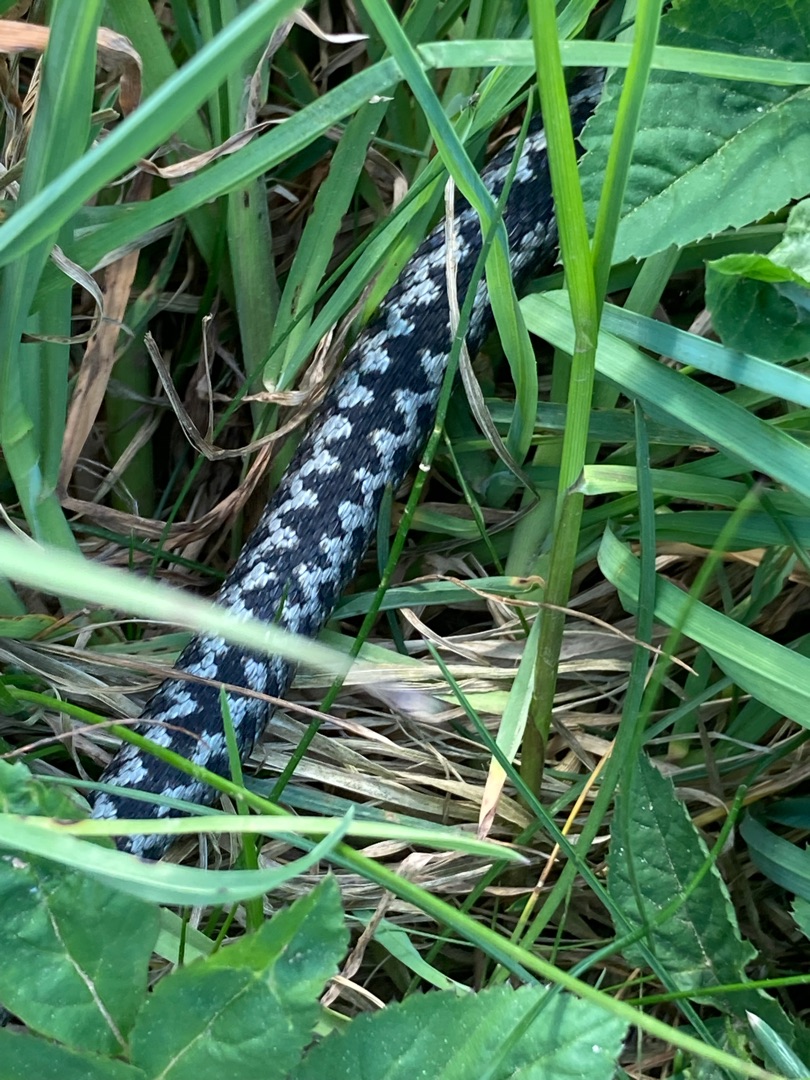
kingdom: Animalia
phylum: Chordata
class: Squamata
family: Viperidae
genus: Vipera
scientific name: Vipera berus
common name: Hugorm
